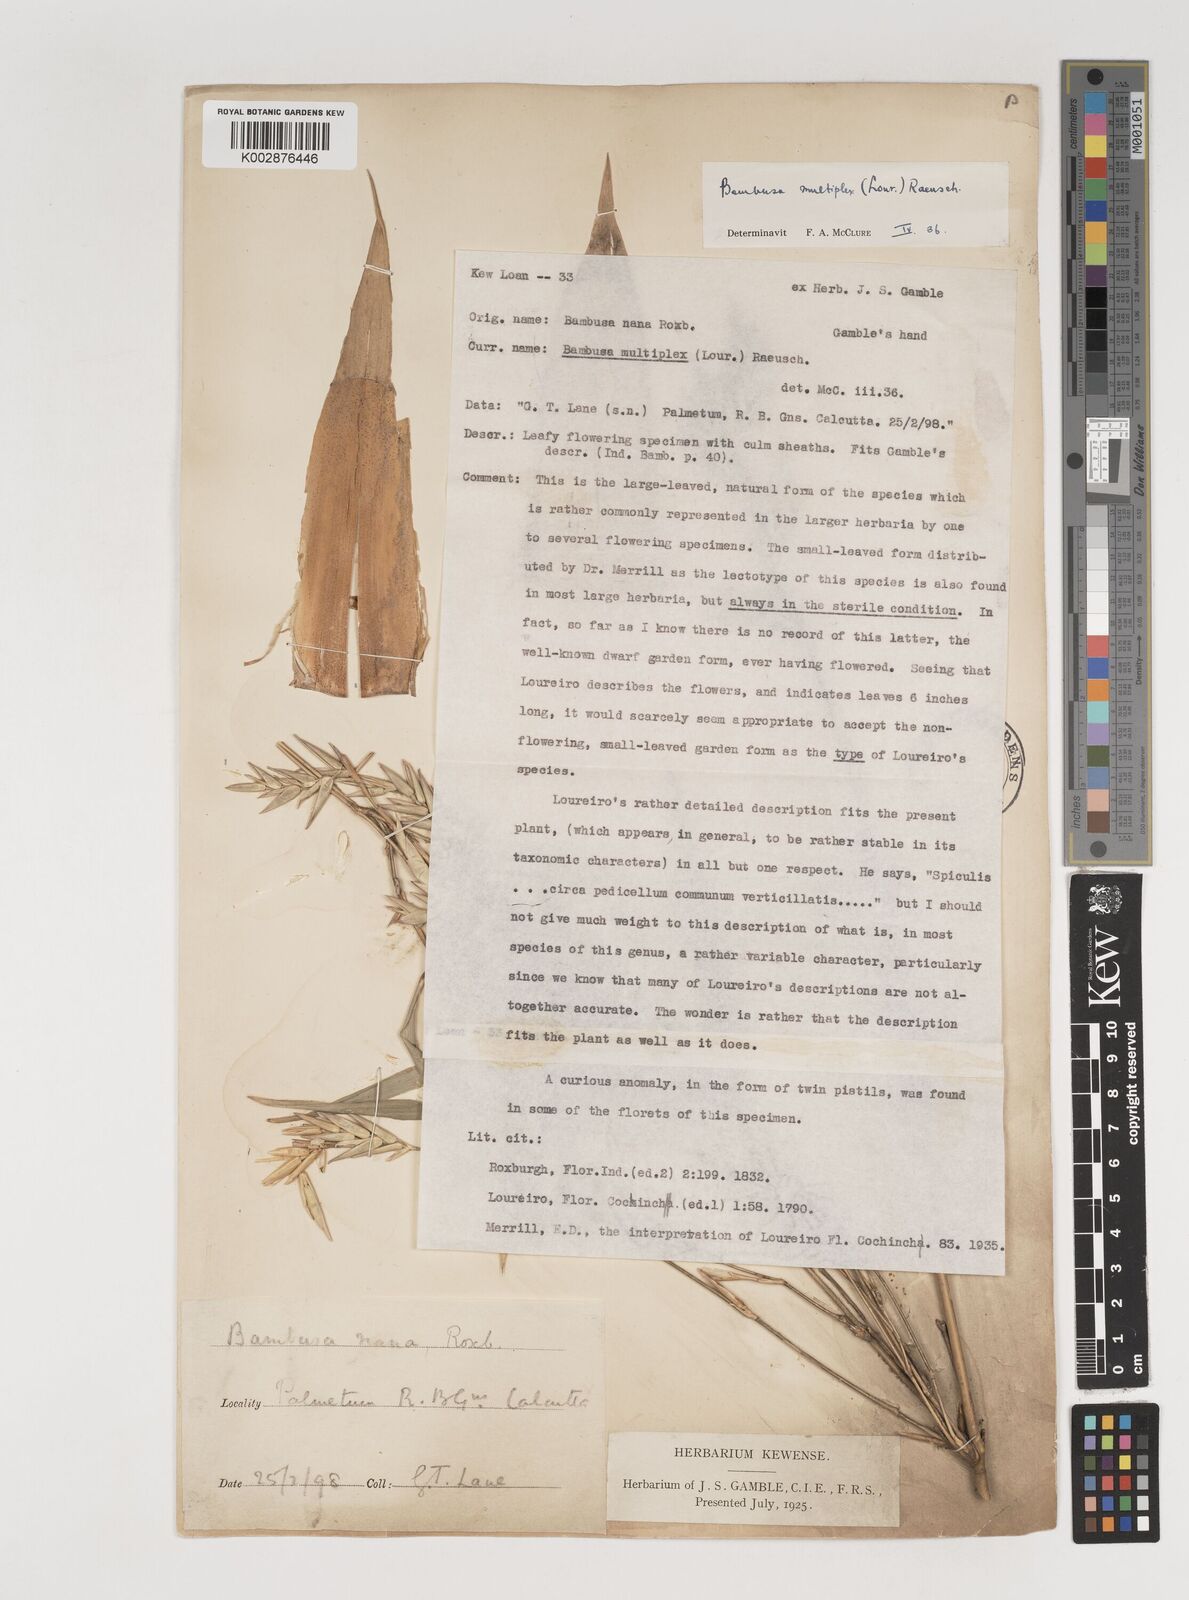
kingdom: Plantae
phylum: Tracheophyta
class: Liliopsida
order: Poales
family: Poaceae
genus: Bambusa
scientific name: Bambusa multiplex
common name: Hedge bamboo
